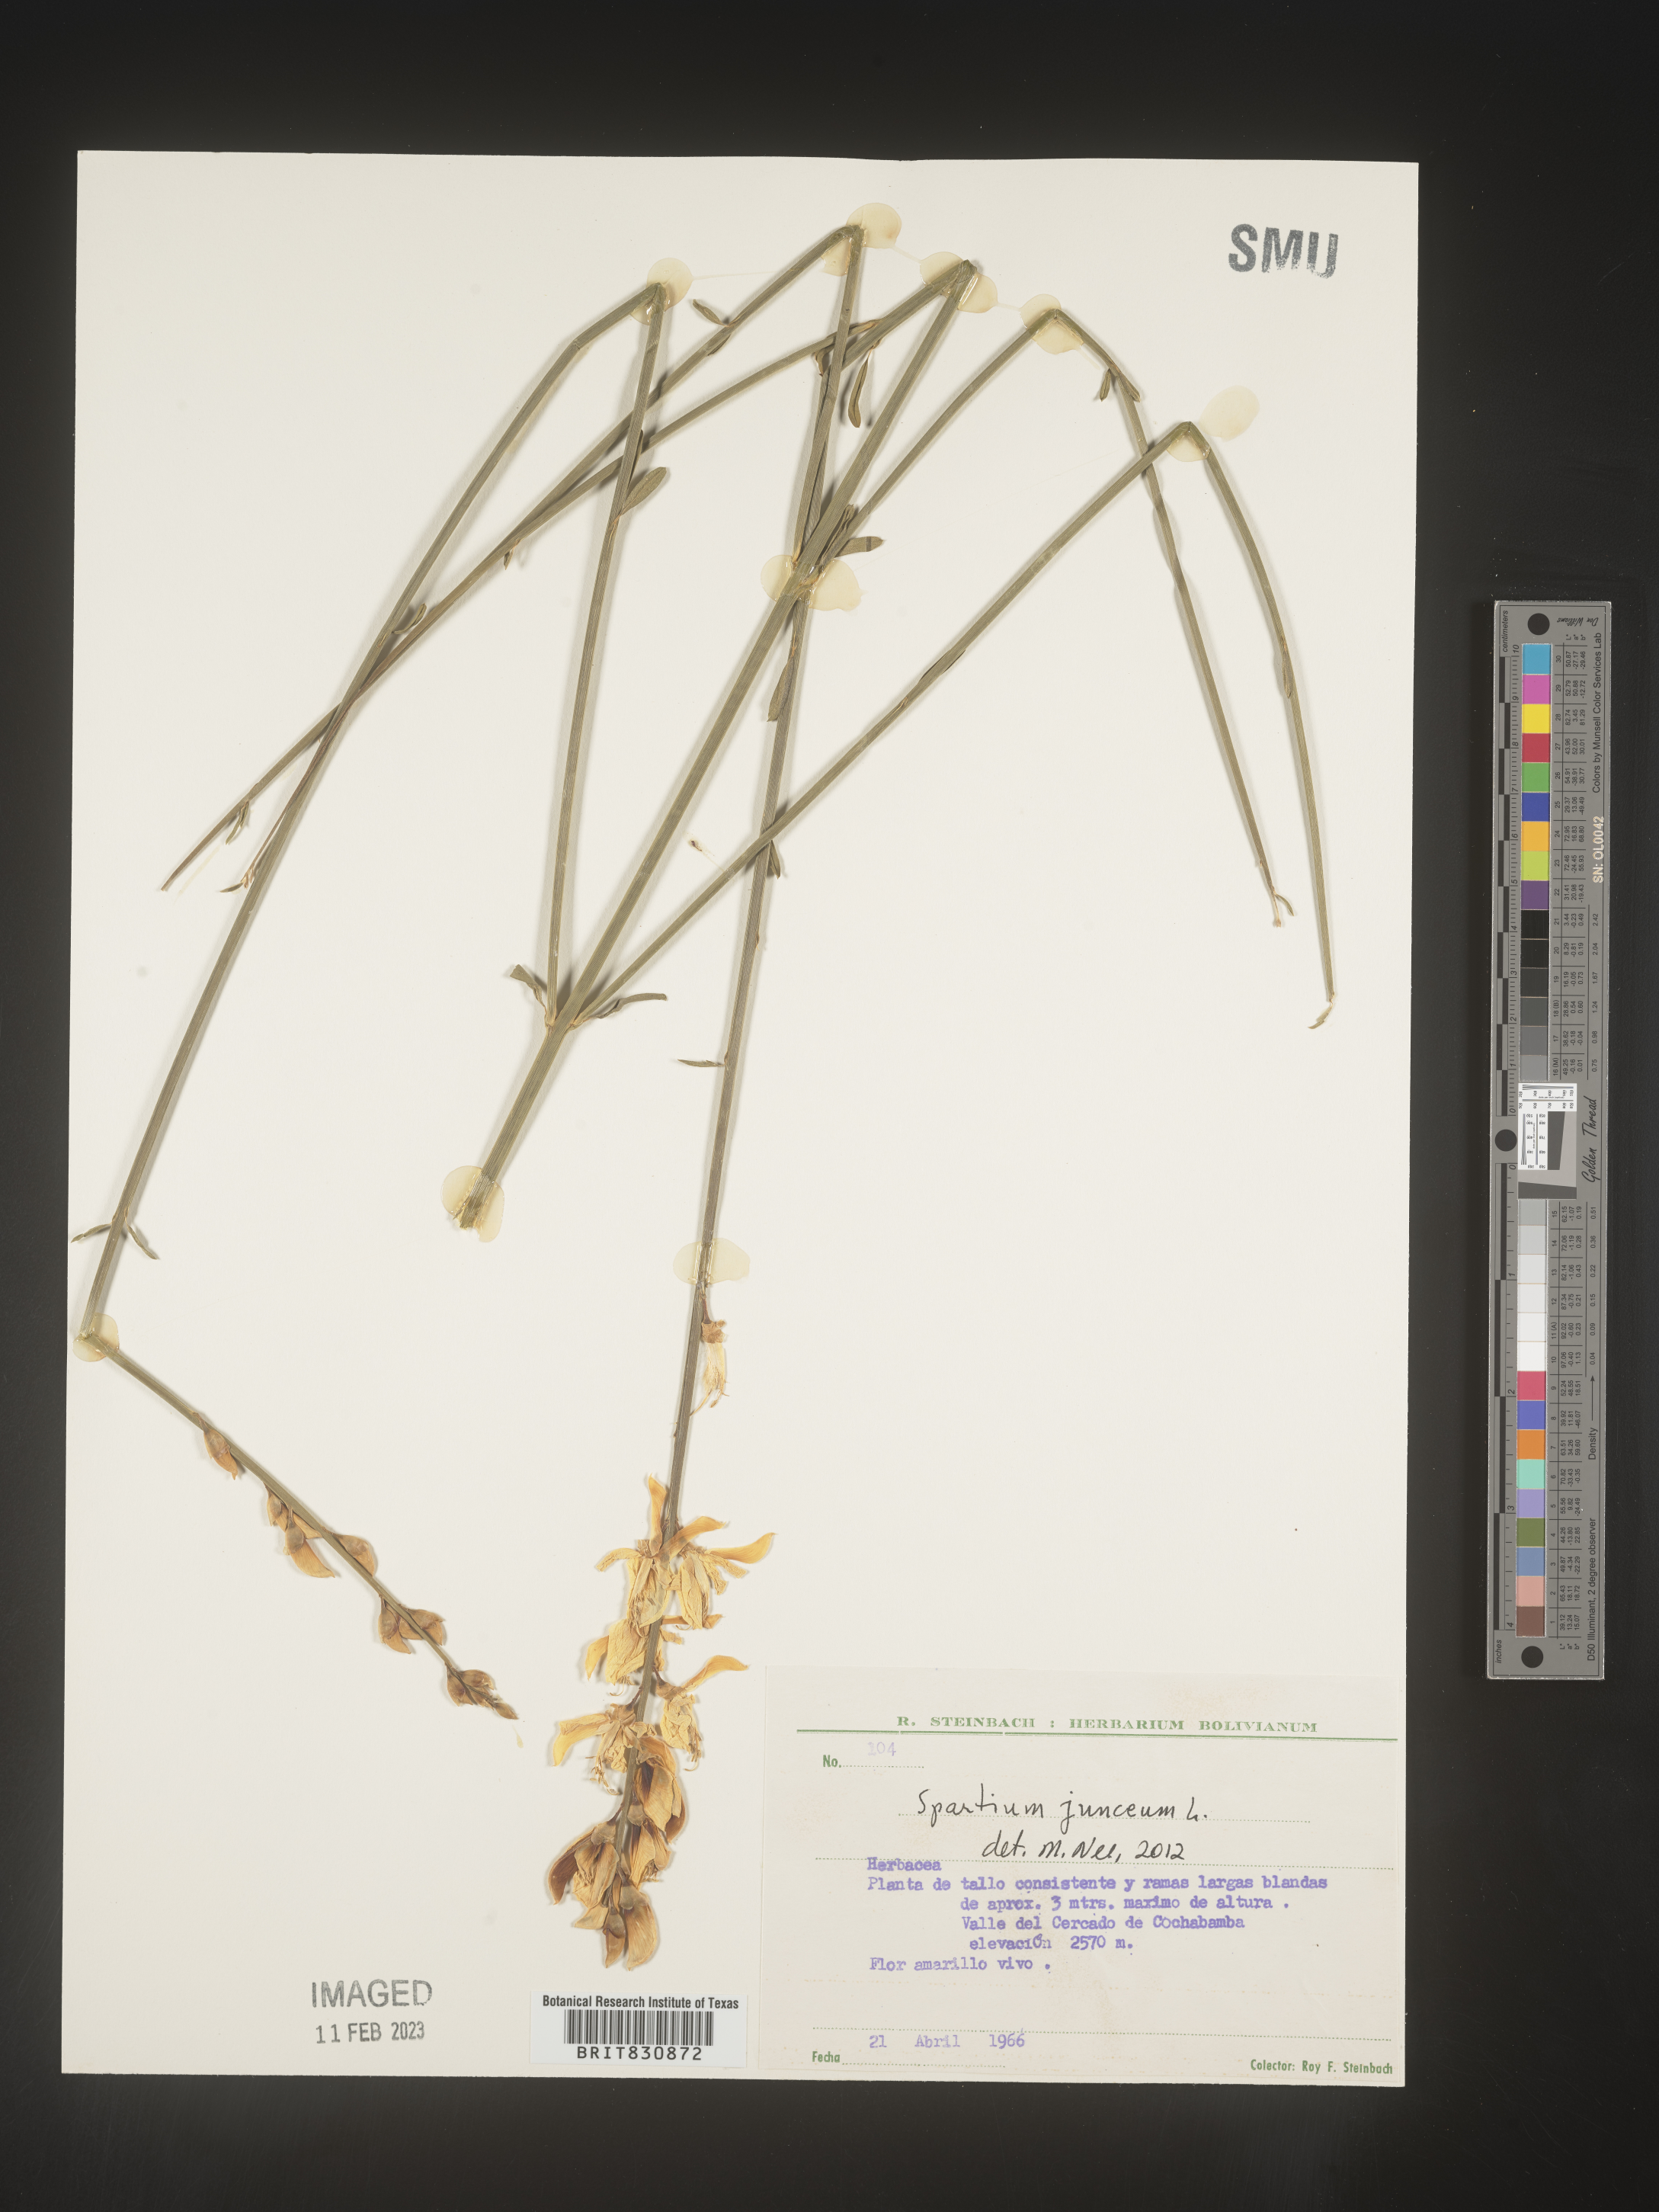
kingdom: Plantae
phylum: Tracheophyta
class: Magnoliopsida
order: Fabales
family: Fabaceae
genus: Spartium
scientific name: Spartium
